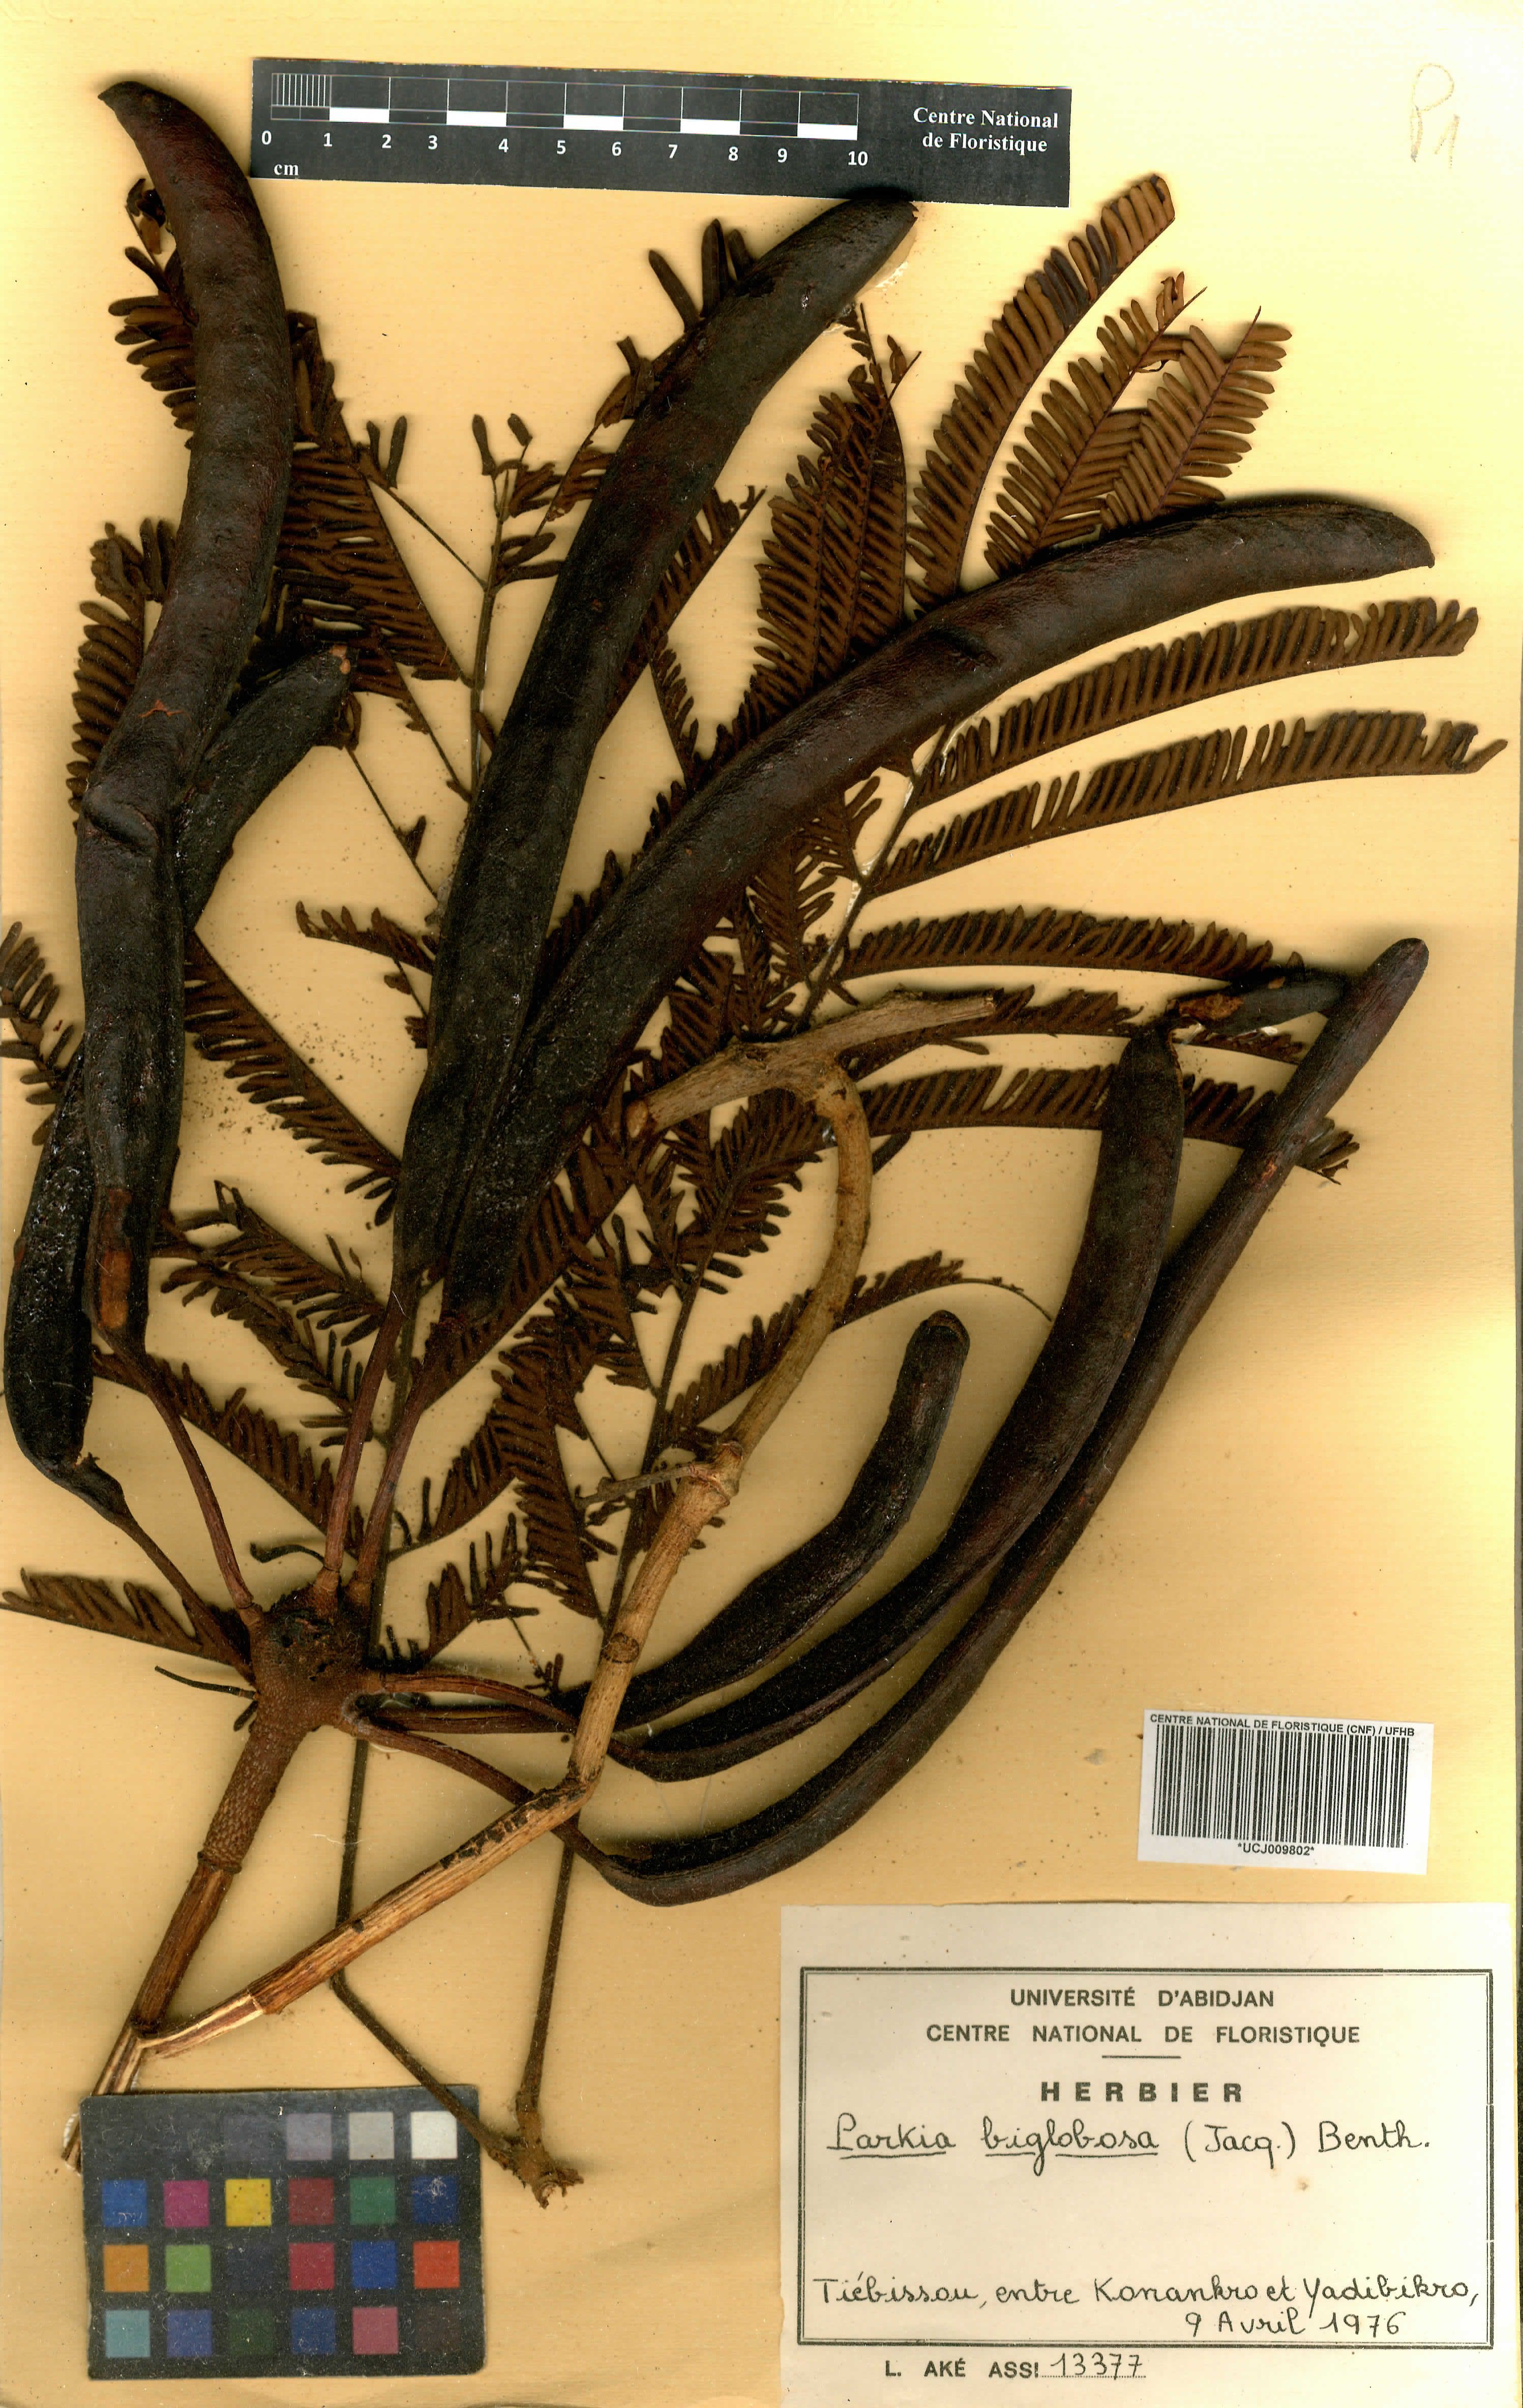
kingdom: Plantae
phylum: Tracheophyta
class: Magnoliopsida
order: Fabales
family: Fabaceae
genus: Parkia
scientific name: Parkia timoriana
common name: Legume
